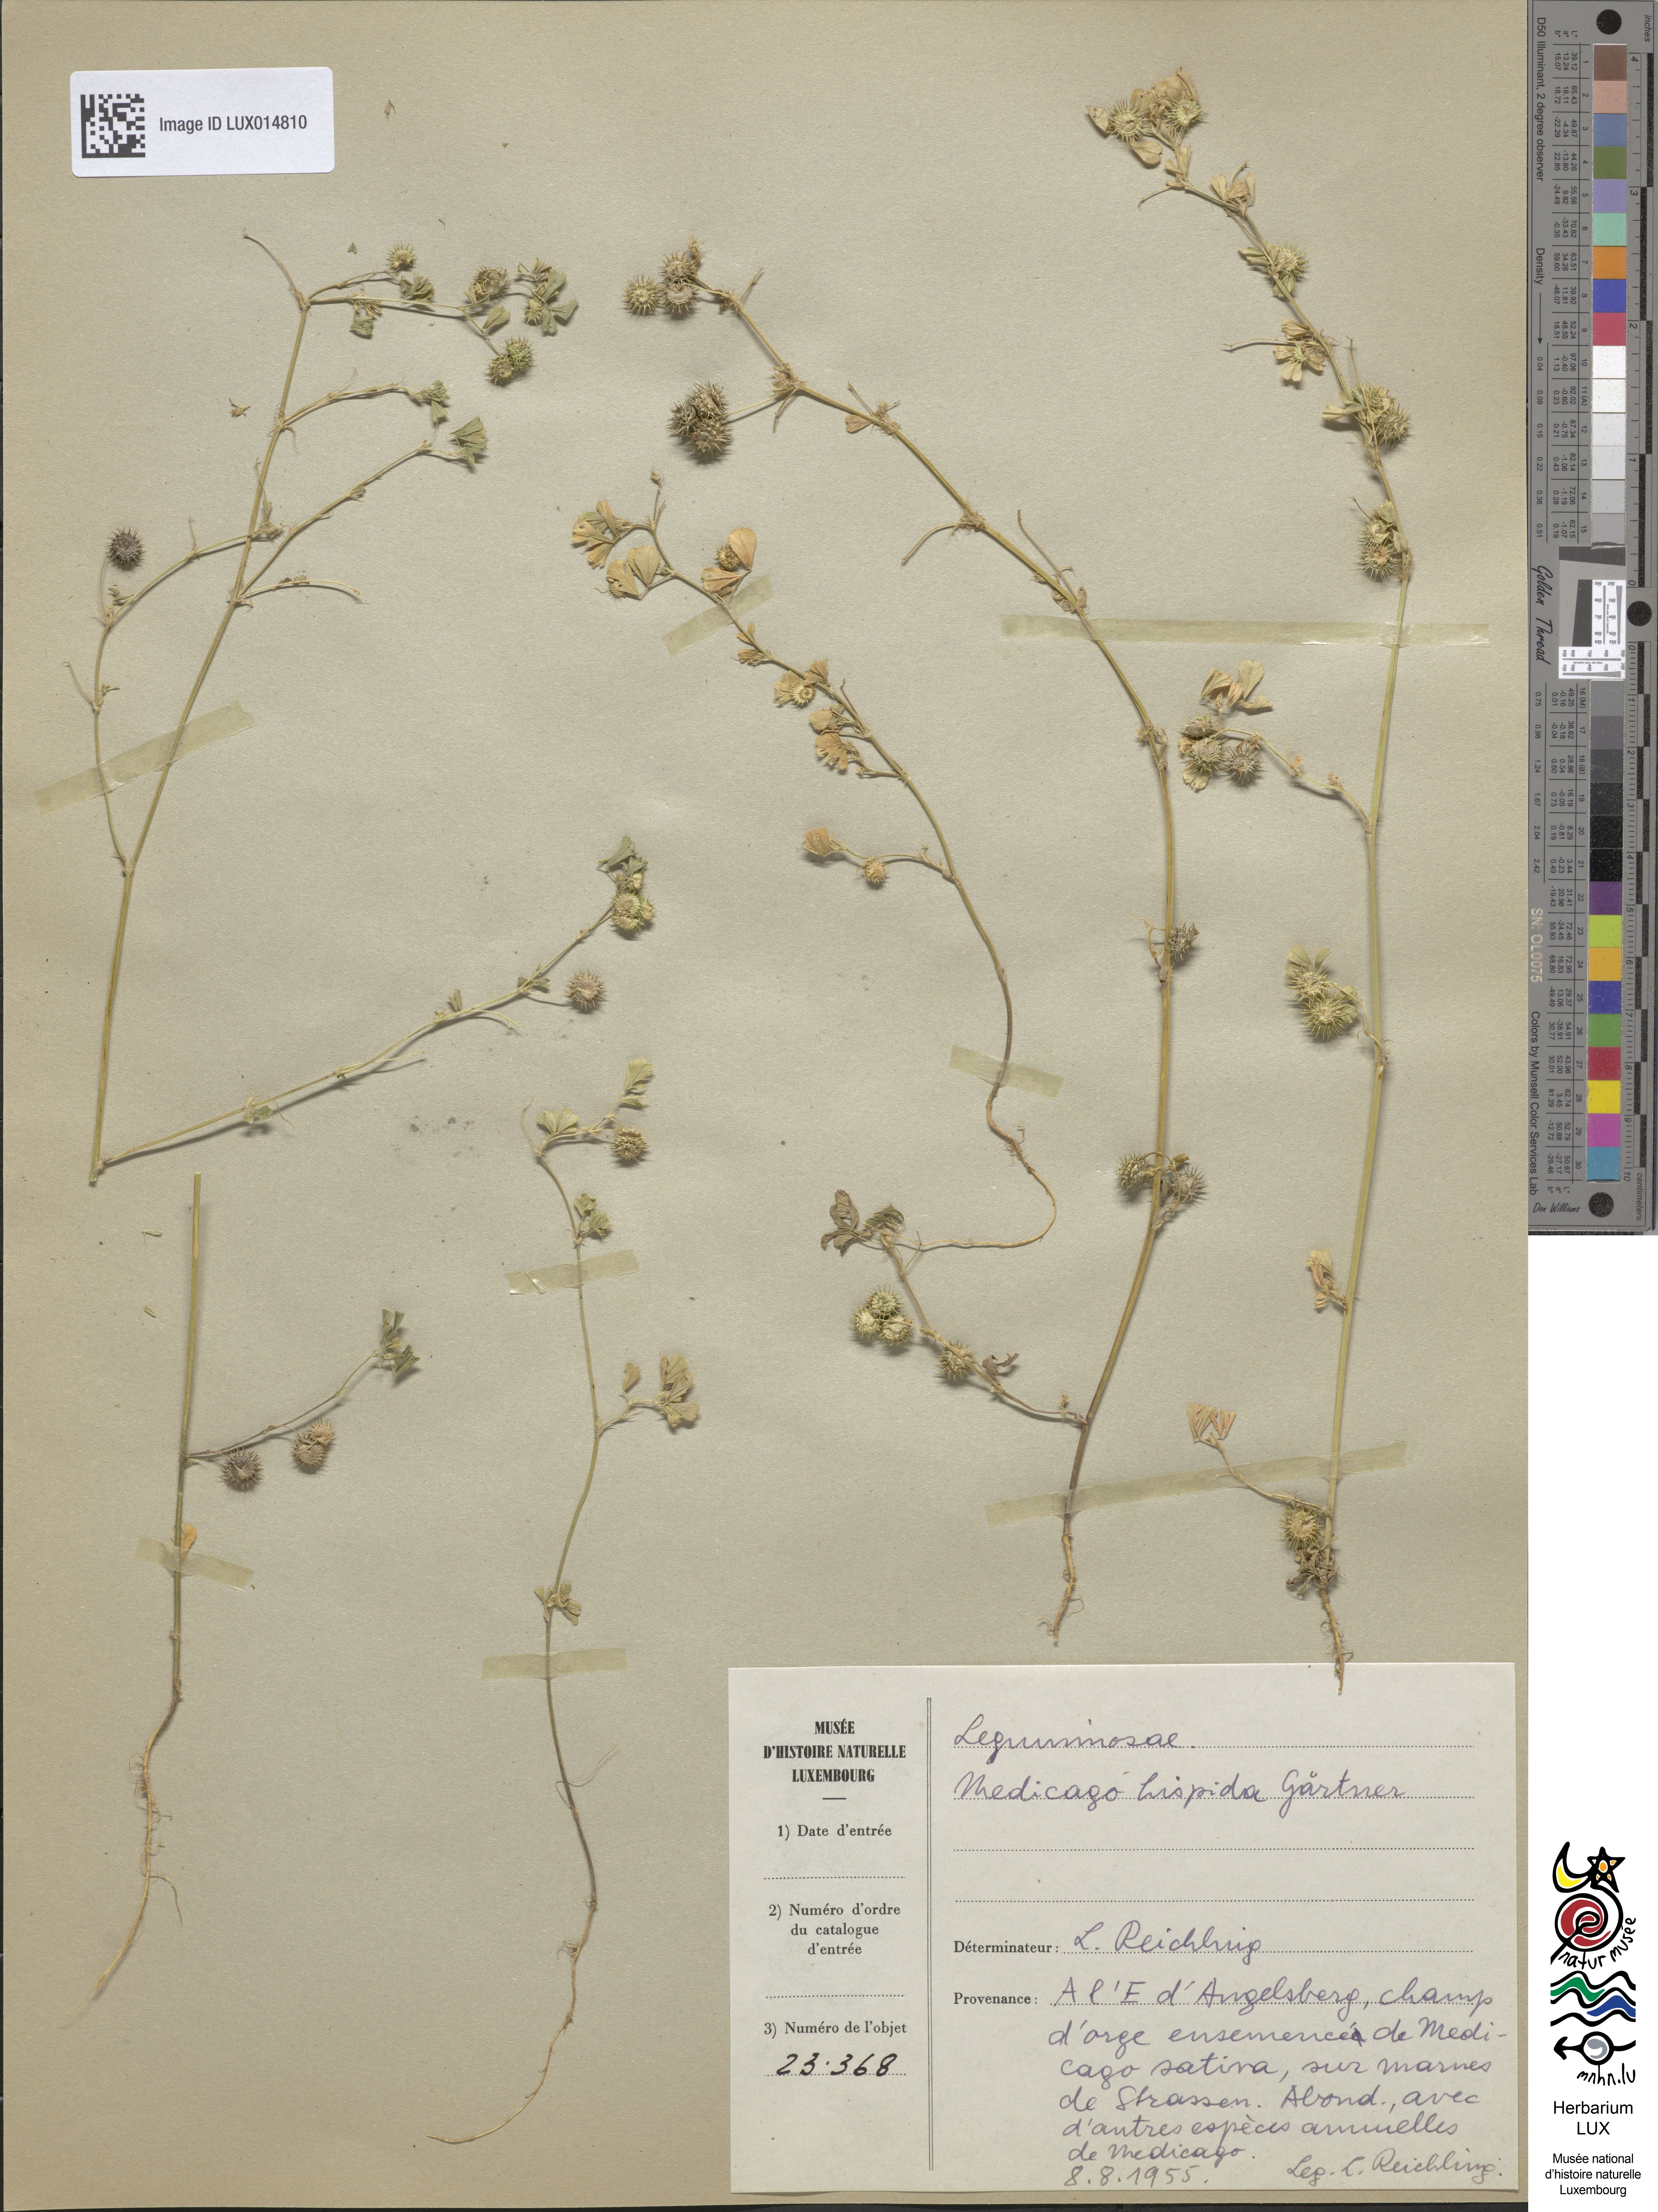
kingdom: Plantae
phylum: Tracheophyta
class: Magnoliopsida
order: Fabales
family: Fabaceae
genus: Medicago
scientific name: Medicago polymorpha
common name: Burclover
